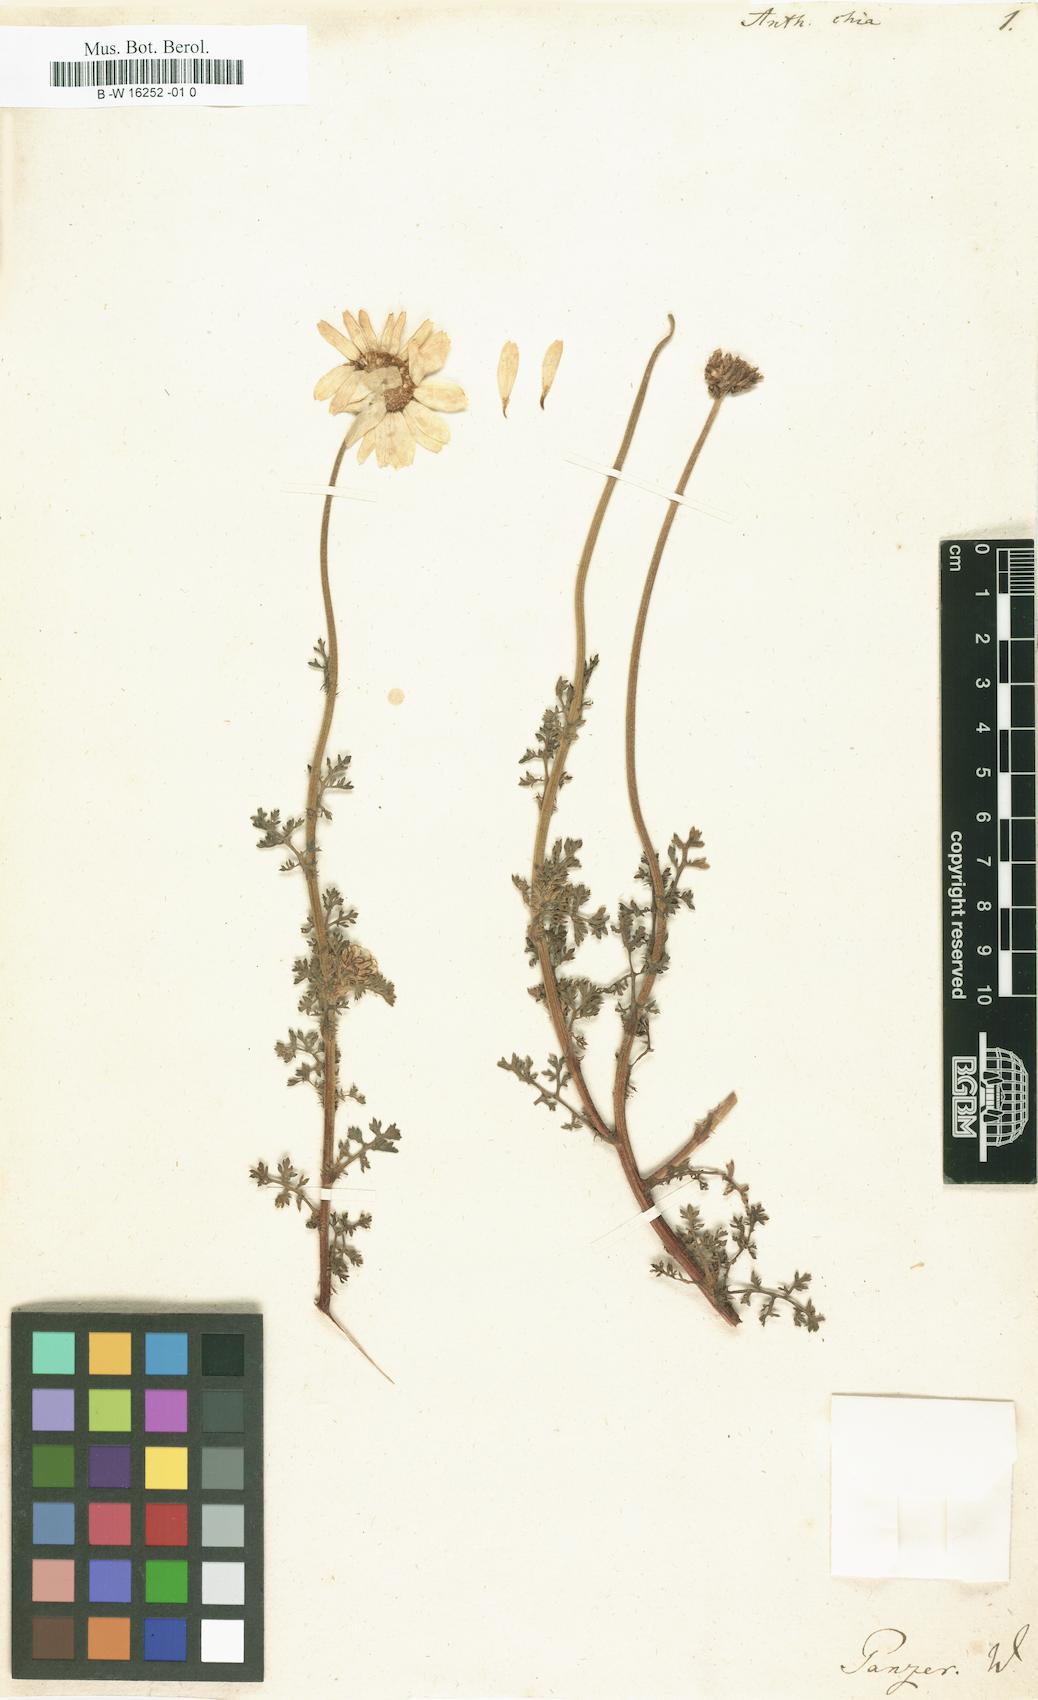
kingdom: Plantae
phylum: Tracheophyta
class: Magnoliopsida
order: Asterales
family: Asteraceae
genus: Anthemis
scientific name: Anthemis chia
